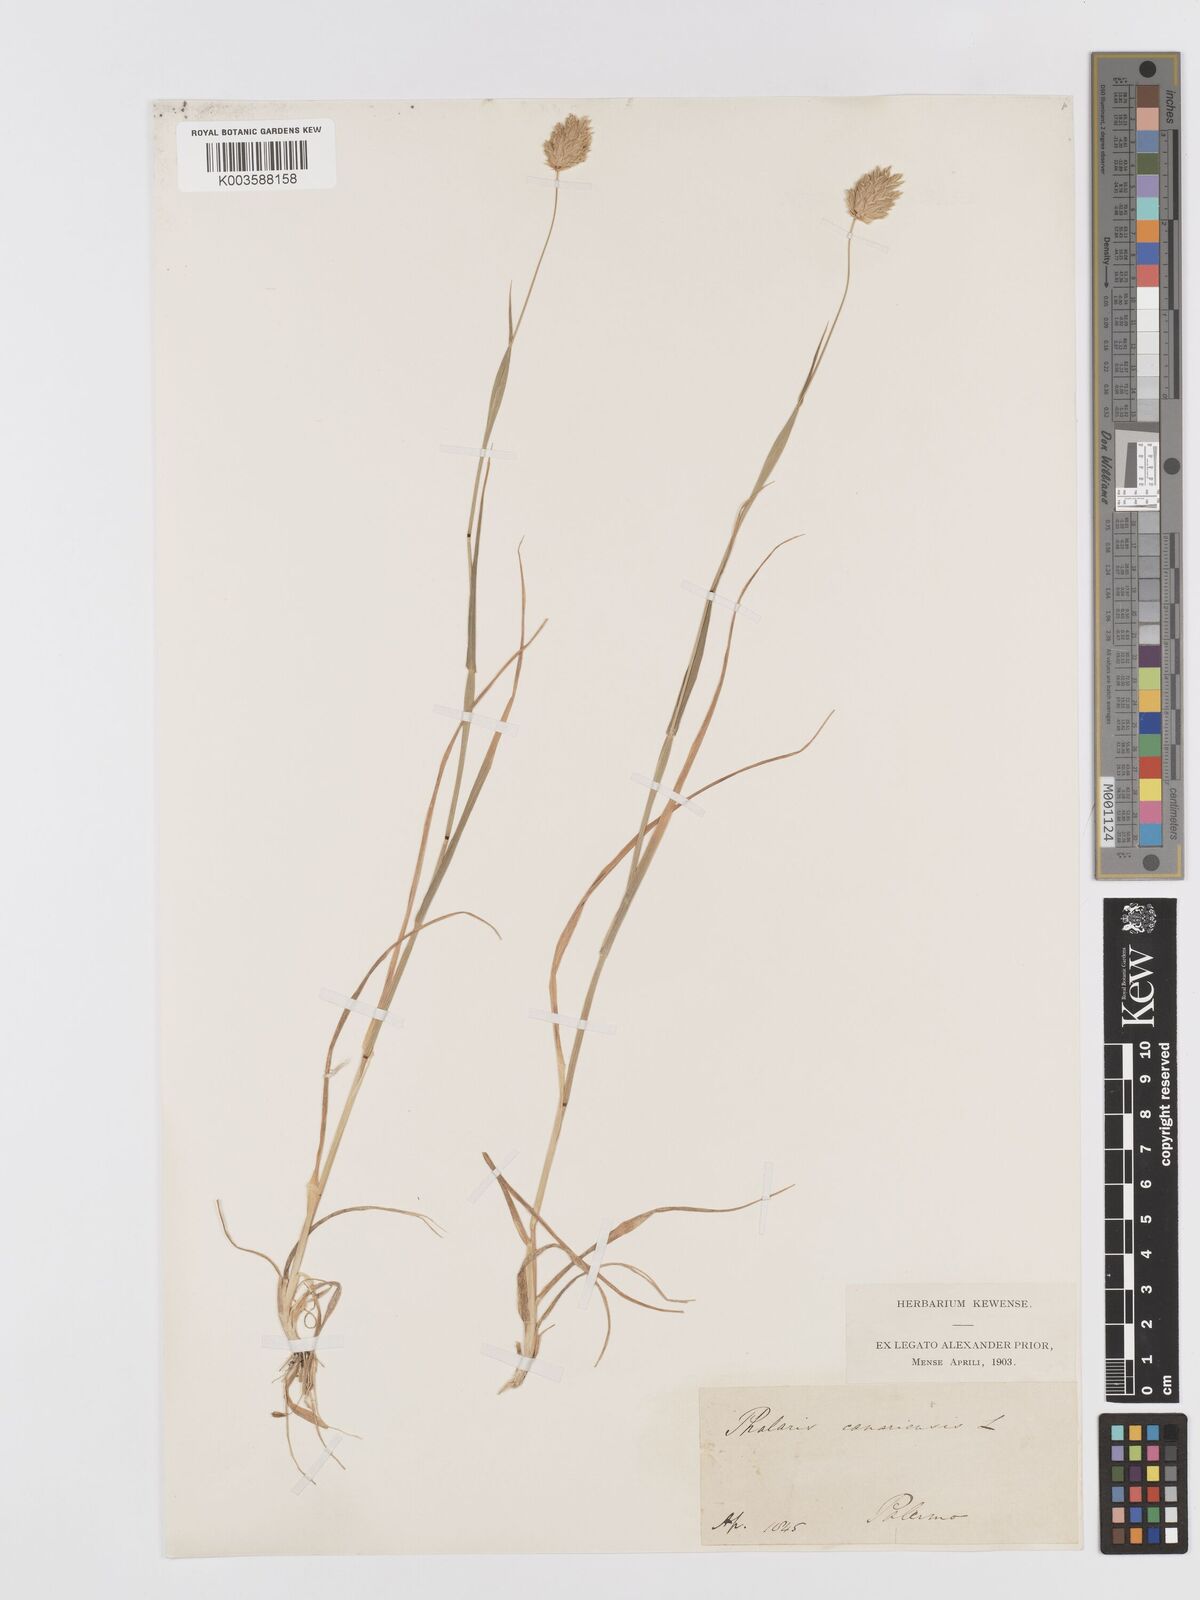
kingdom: Plantae
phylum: Tracheophyta
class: Liliopsida
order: Poales
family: Poaceae
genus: Phalaris
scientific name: Phalaris canariensis
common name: Annual canarygrass
